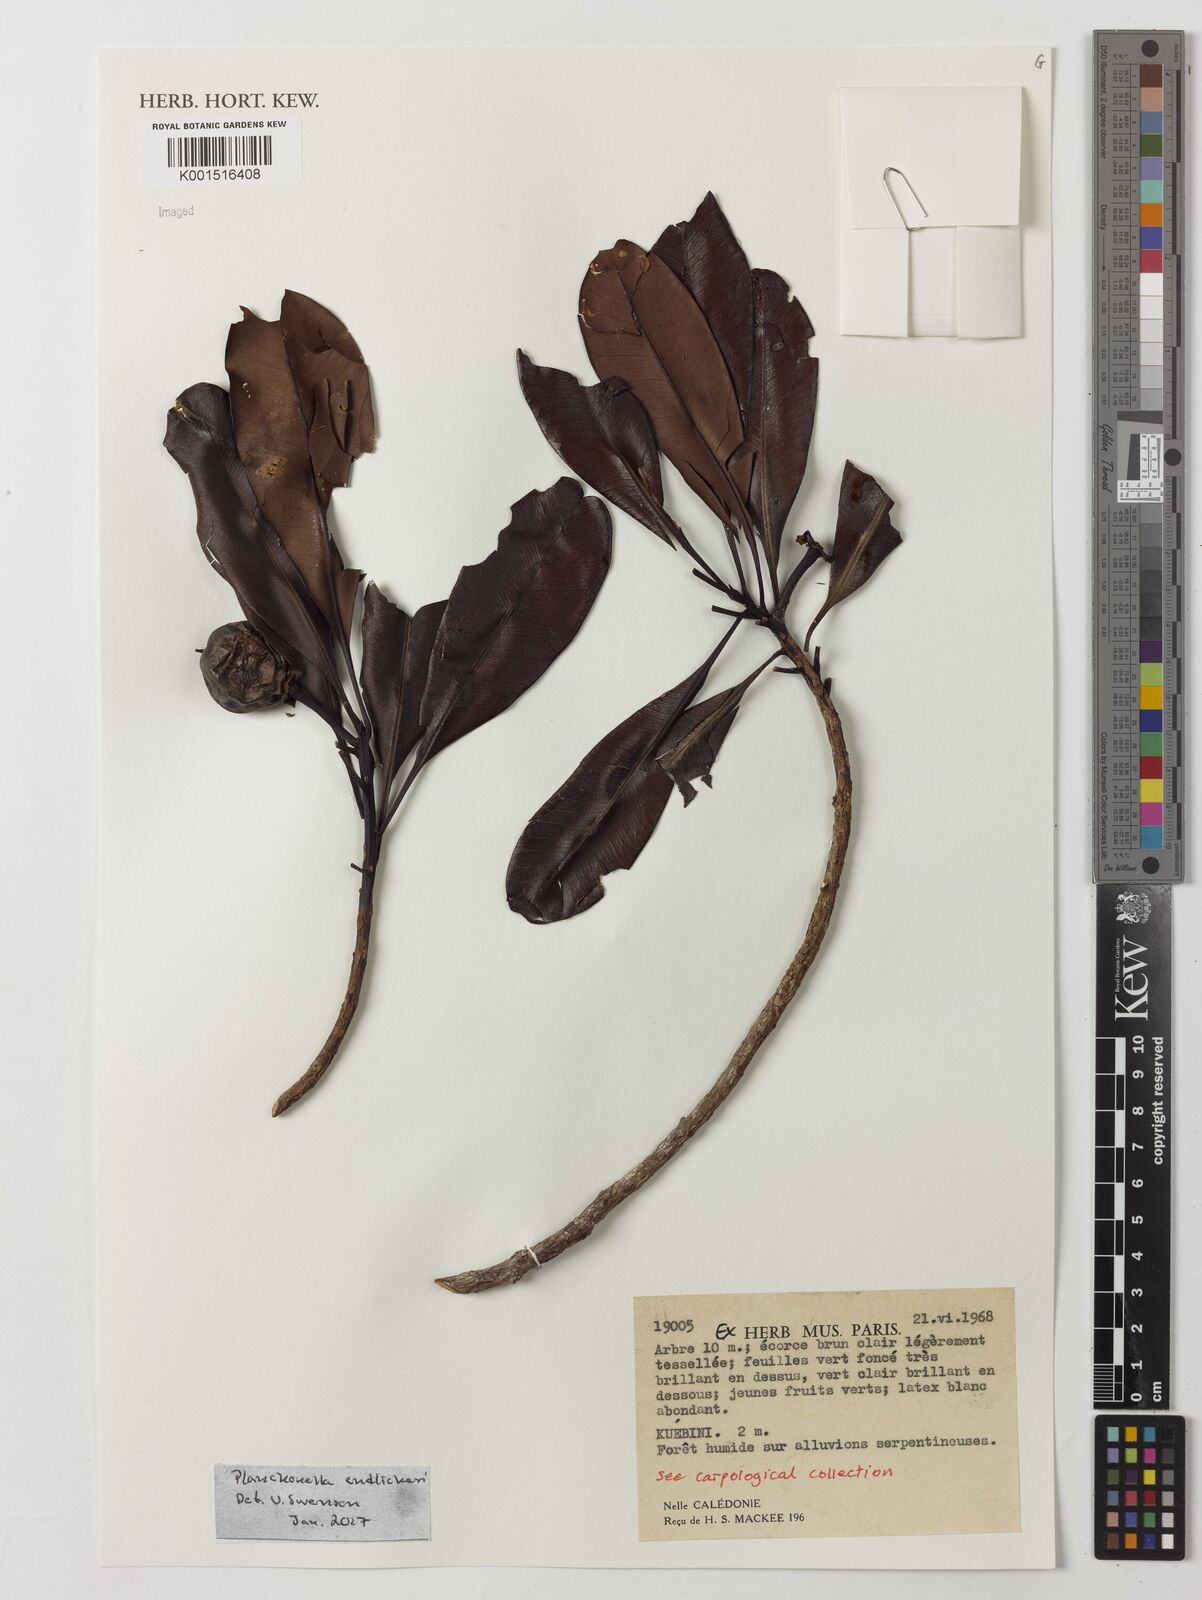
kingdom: Plantae
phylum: Tracheophyta
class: Magnoliopsida
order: Ericales
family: Sapotaceae
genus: Planchonella
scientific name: Planchonella endlicheri
